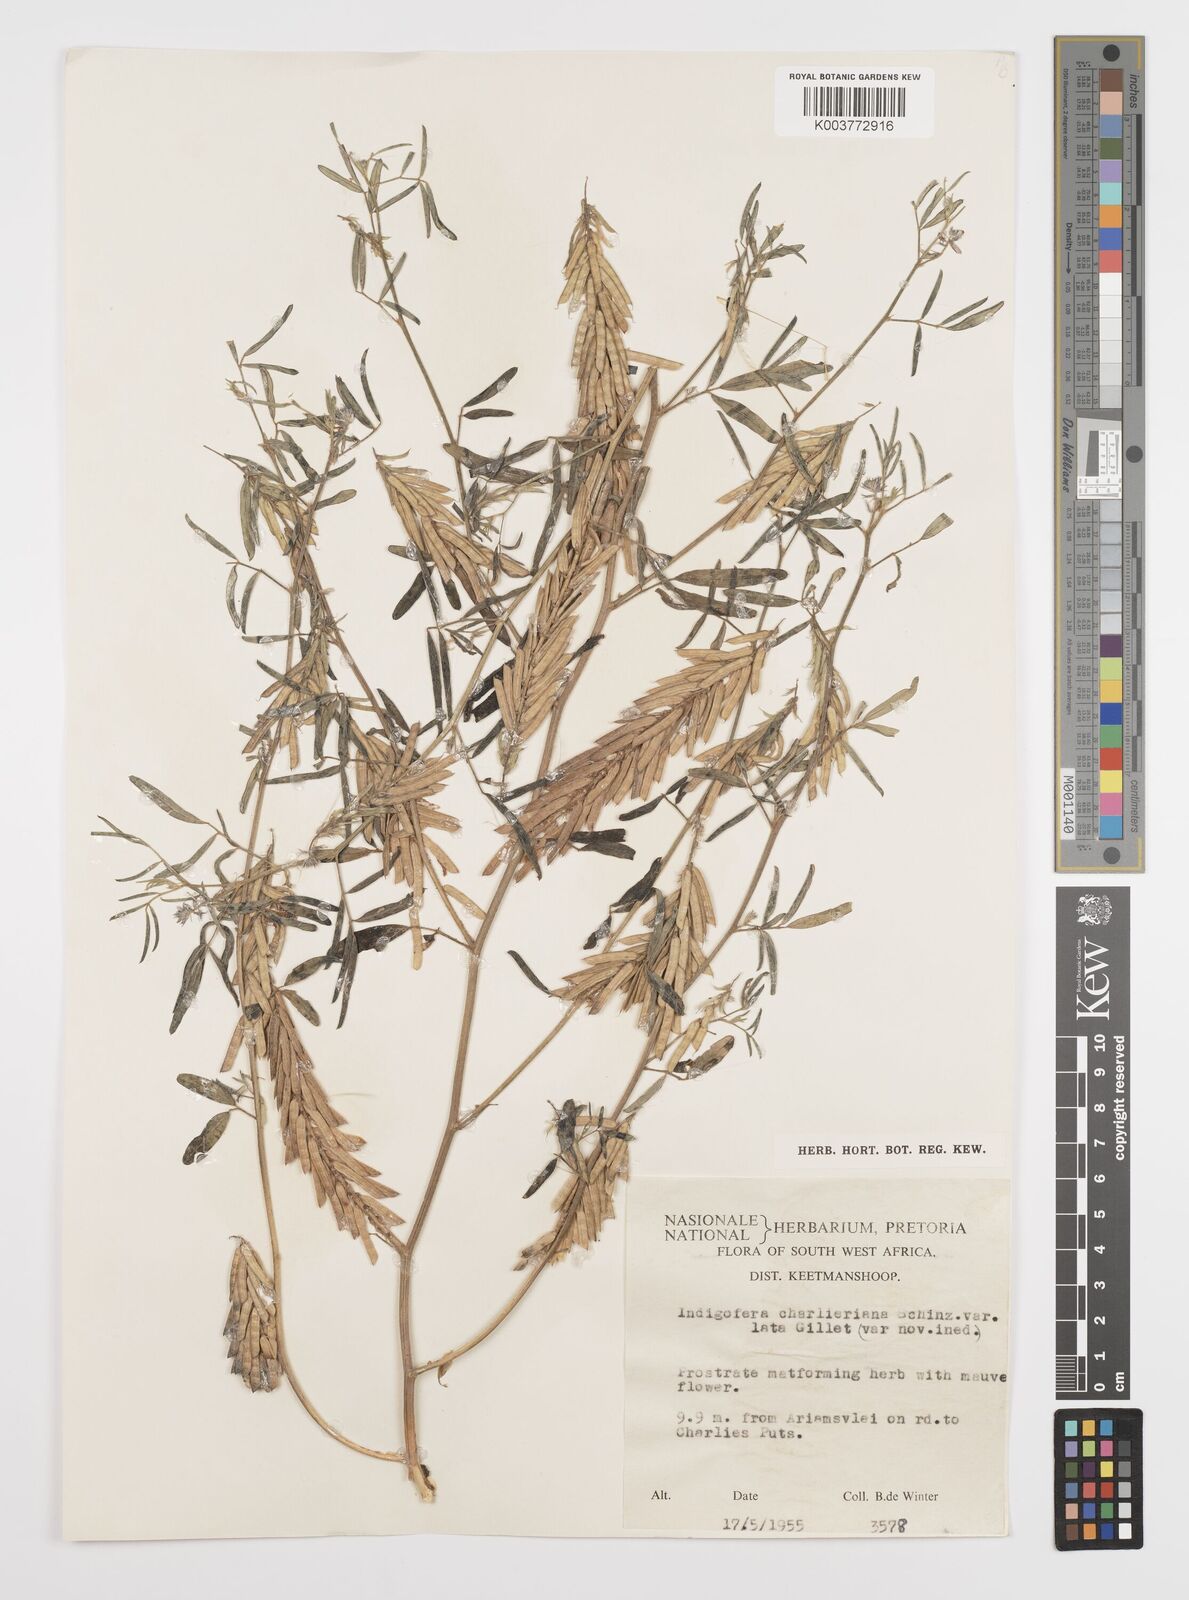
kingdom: Plantae
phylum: Tracheophyta
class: Magnoliopsida
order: Fabales
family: Fabaceae
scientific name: Fabaceae
